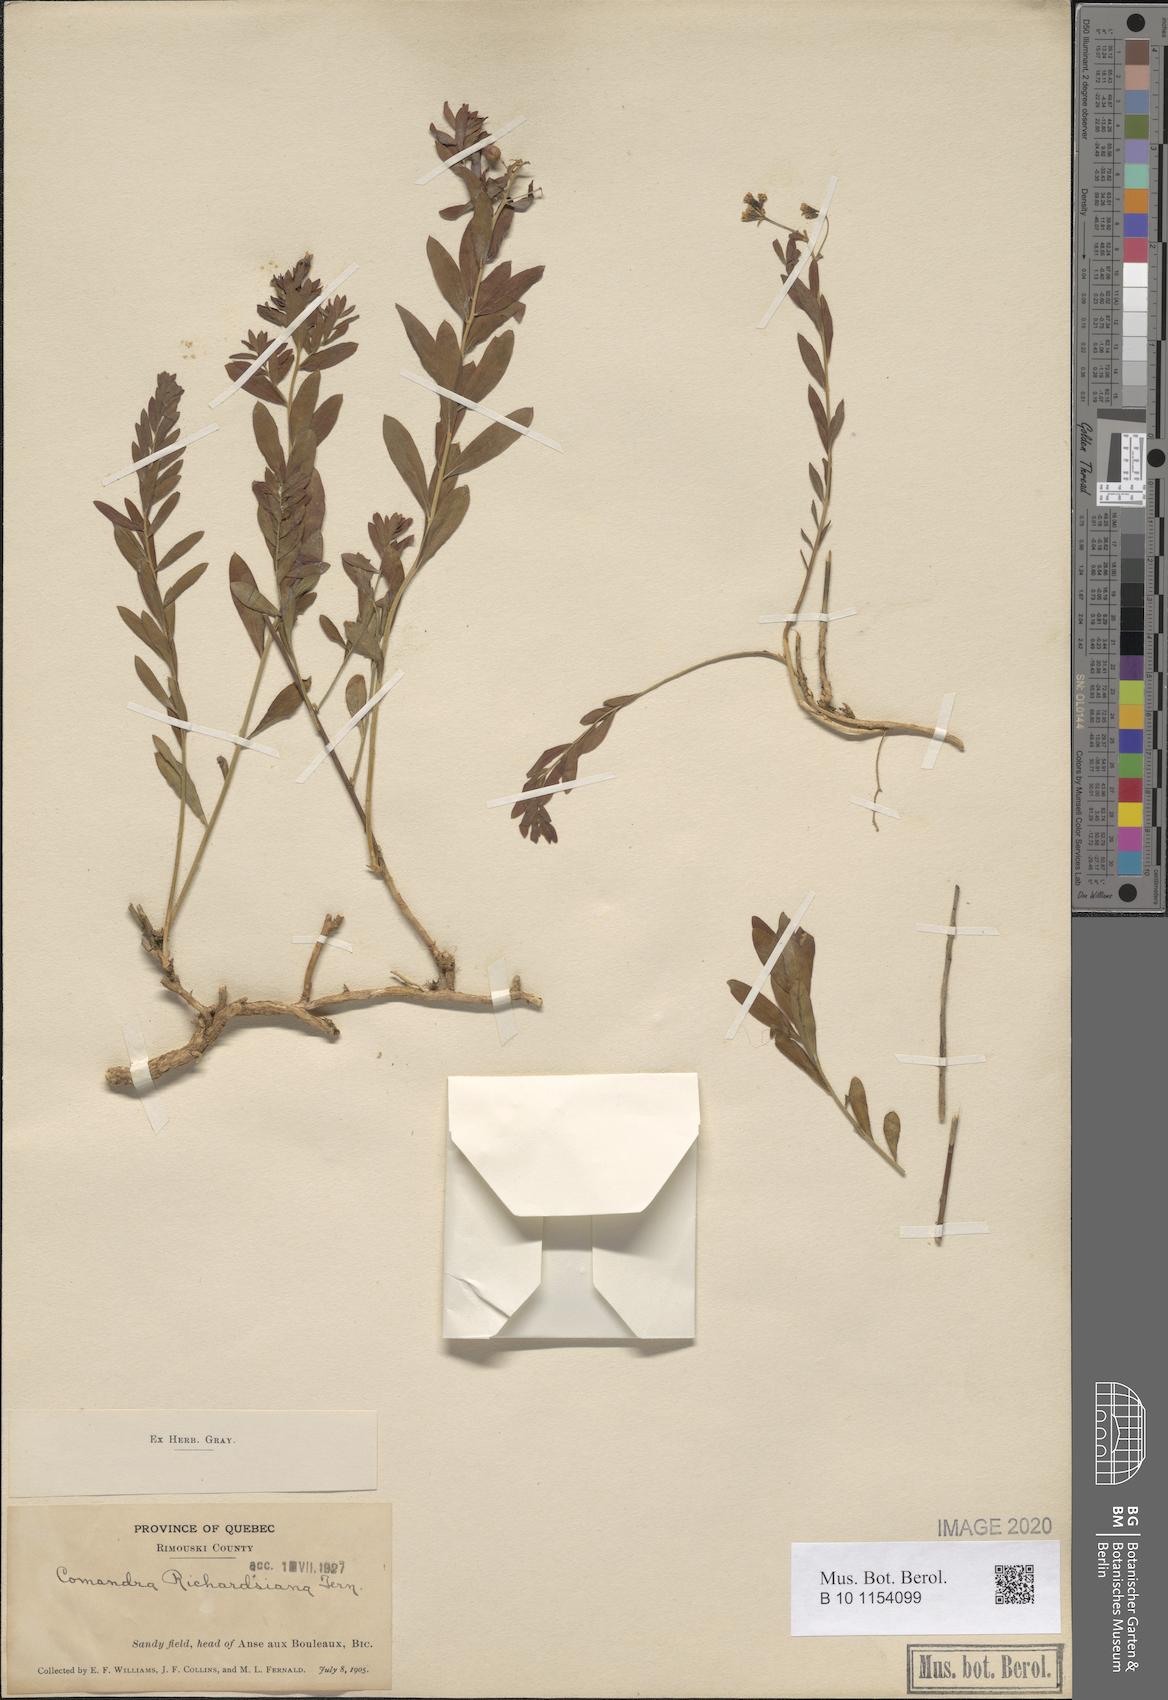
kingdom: Plantae
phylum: Tracheophyta
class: Magnoliopsida
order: Santalales
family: Comandraceae
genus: Comandra
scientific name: Comandra umbellata
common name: Bastard toadflax
